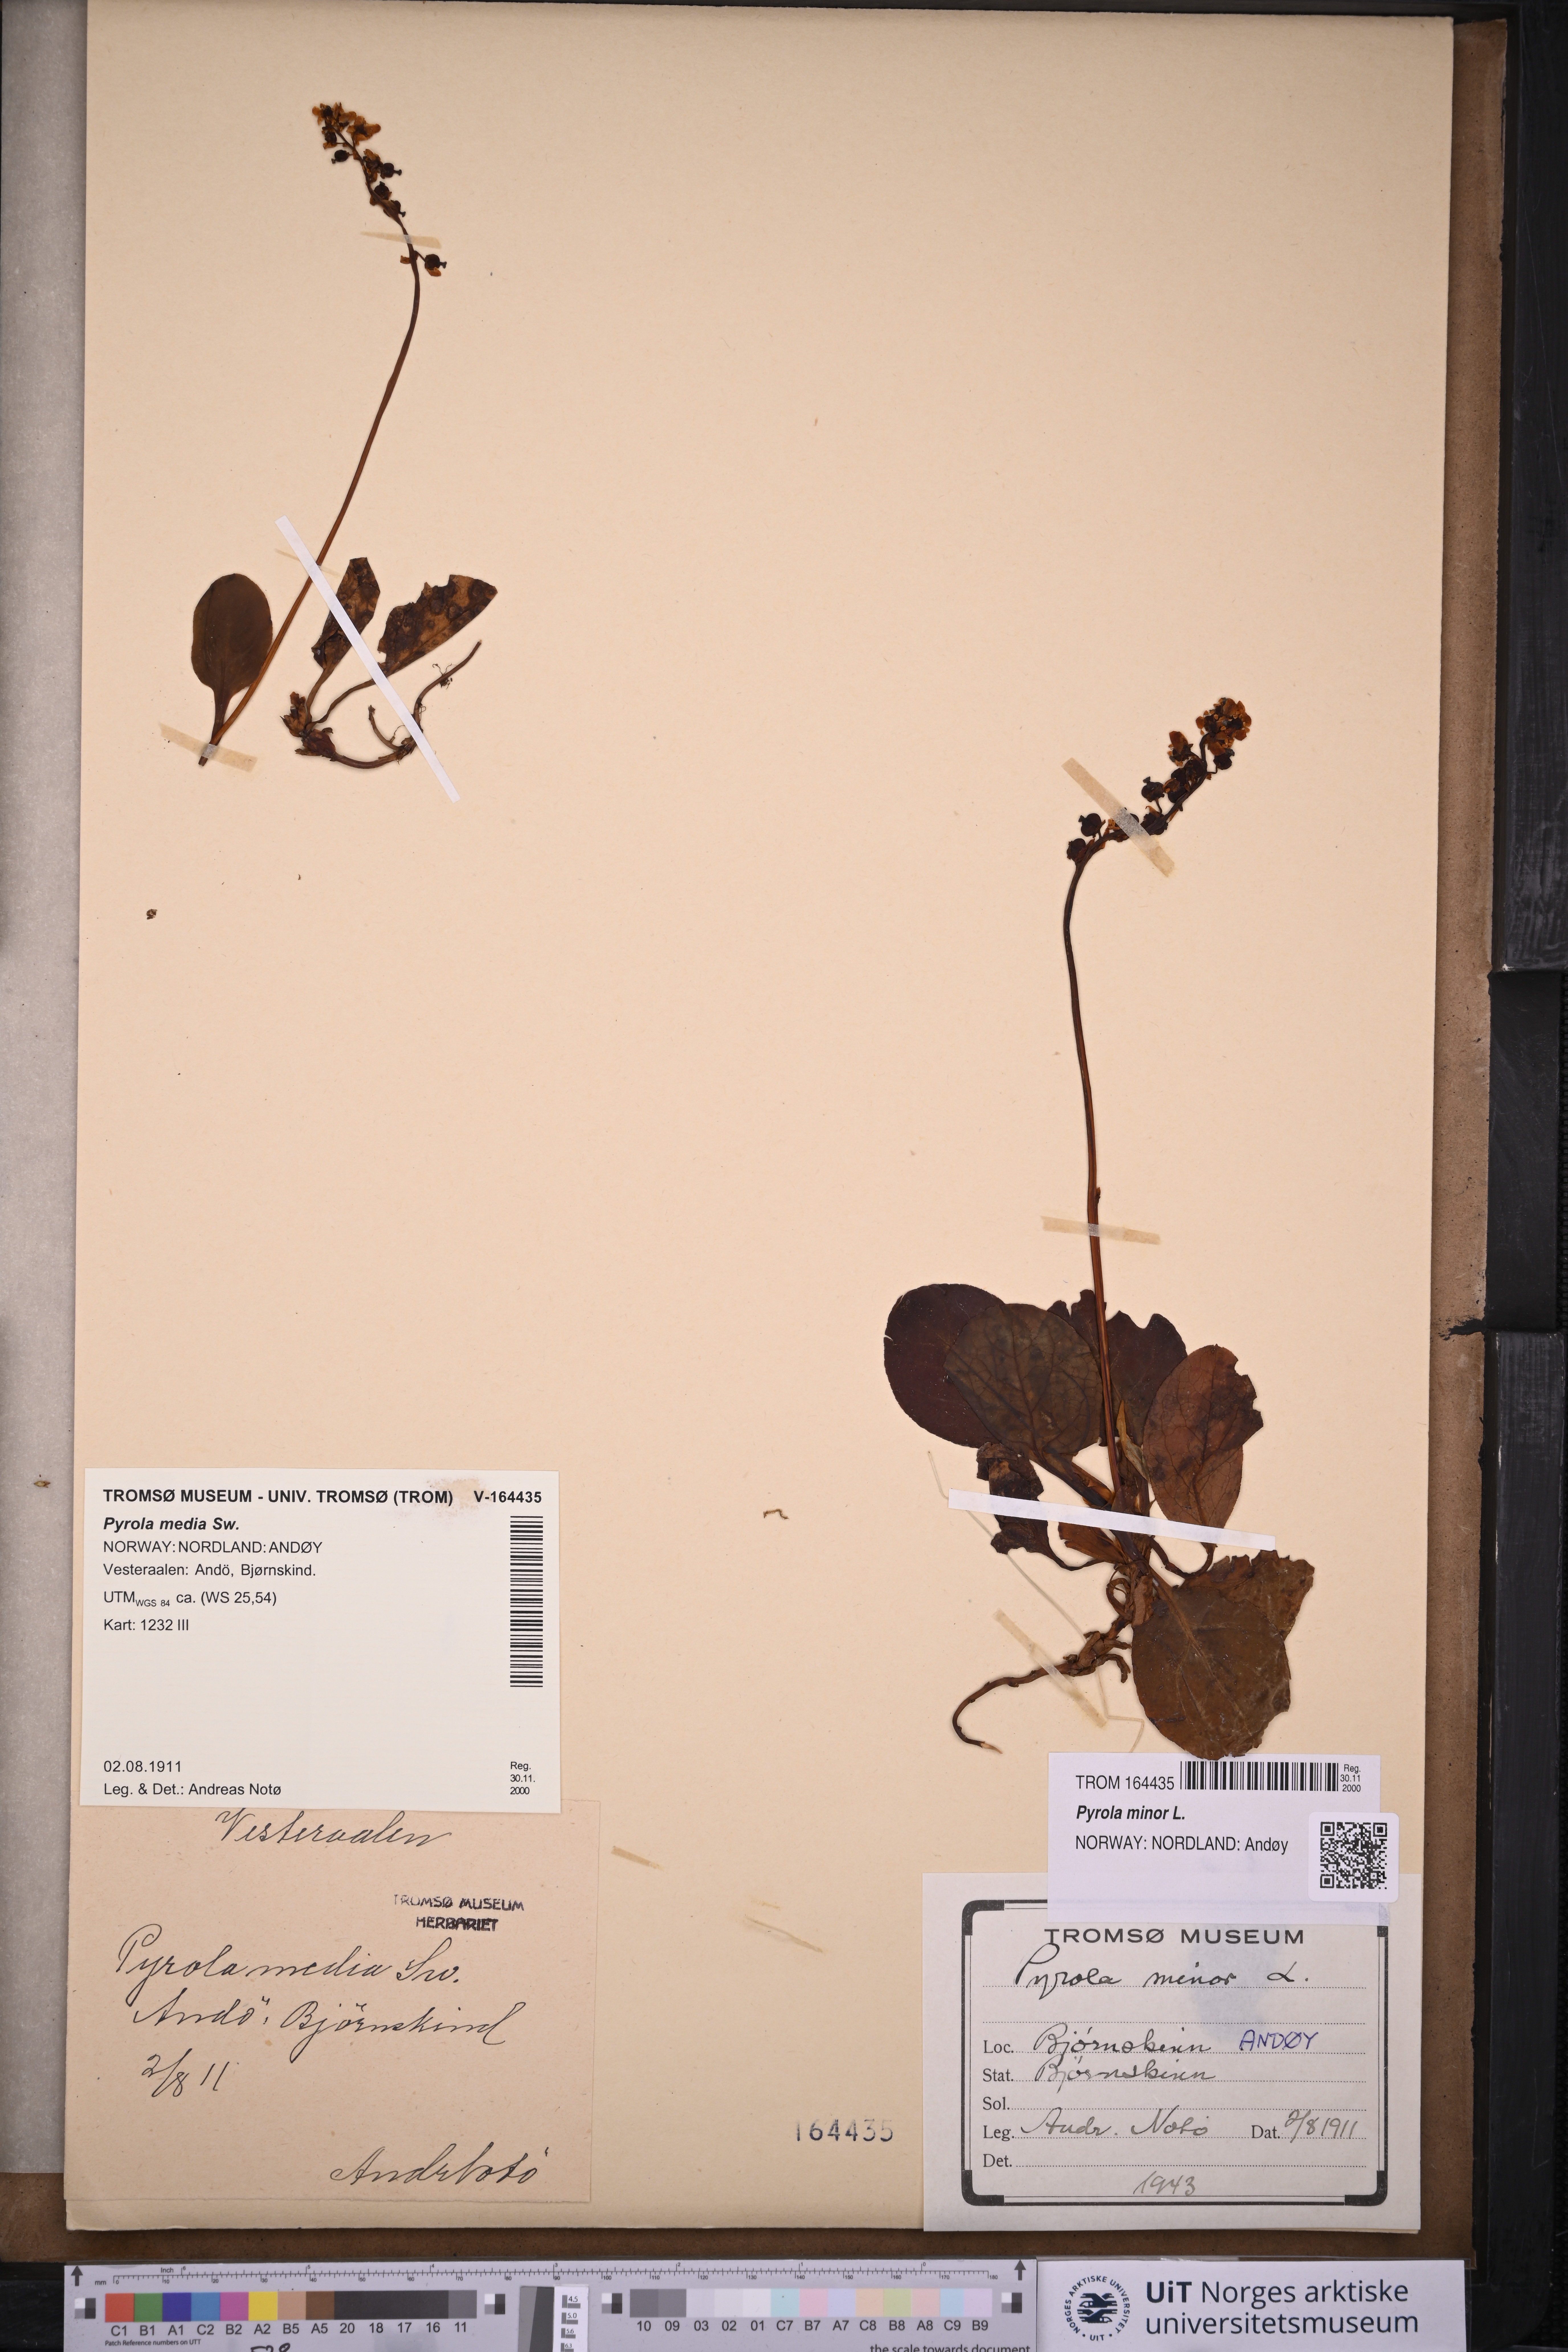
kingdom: Plantae
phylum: Tracheophyta
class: Magnoliopsida
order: Ericales
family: Ericaceae
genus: Pyrola
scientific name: Pyrola minor
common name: Common wintergreen
